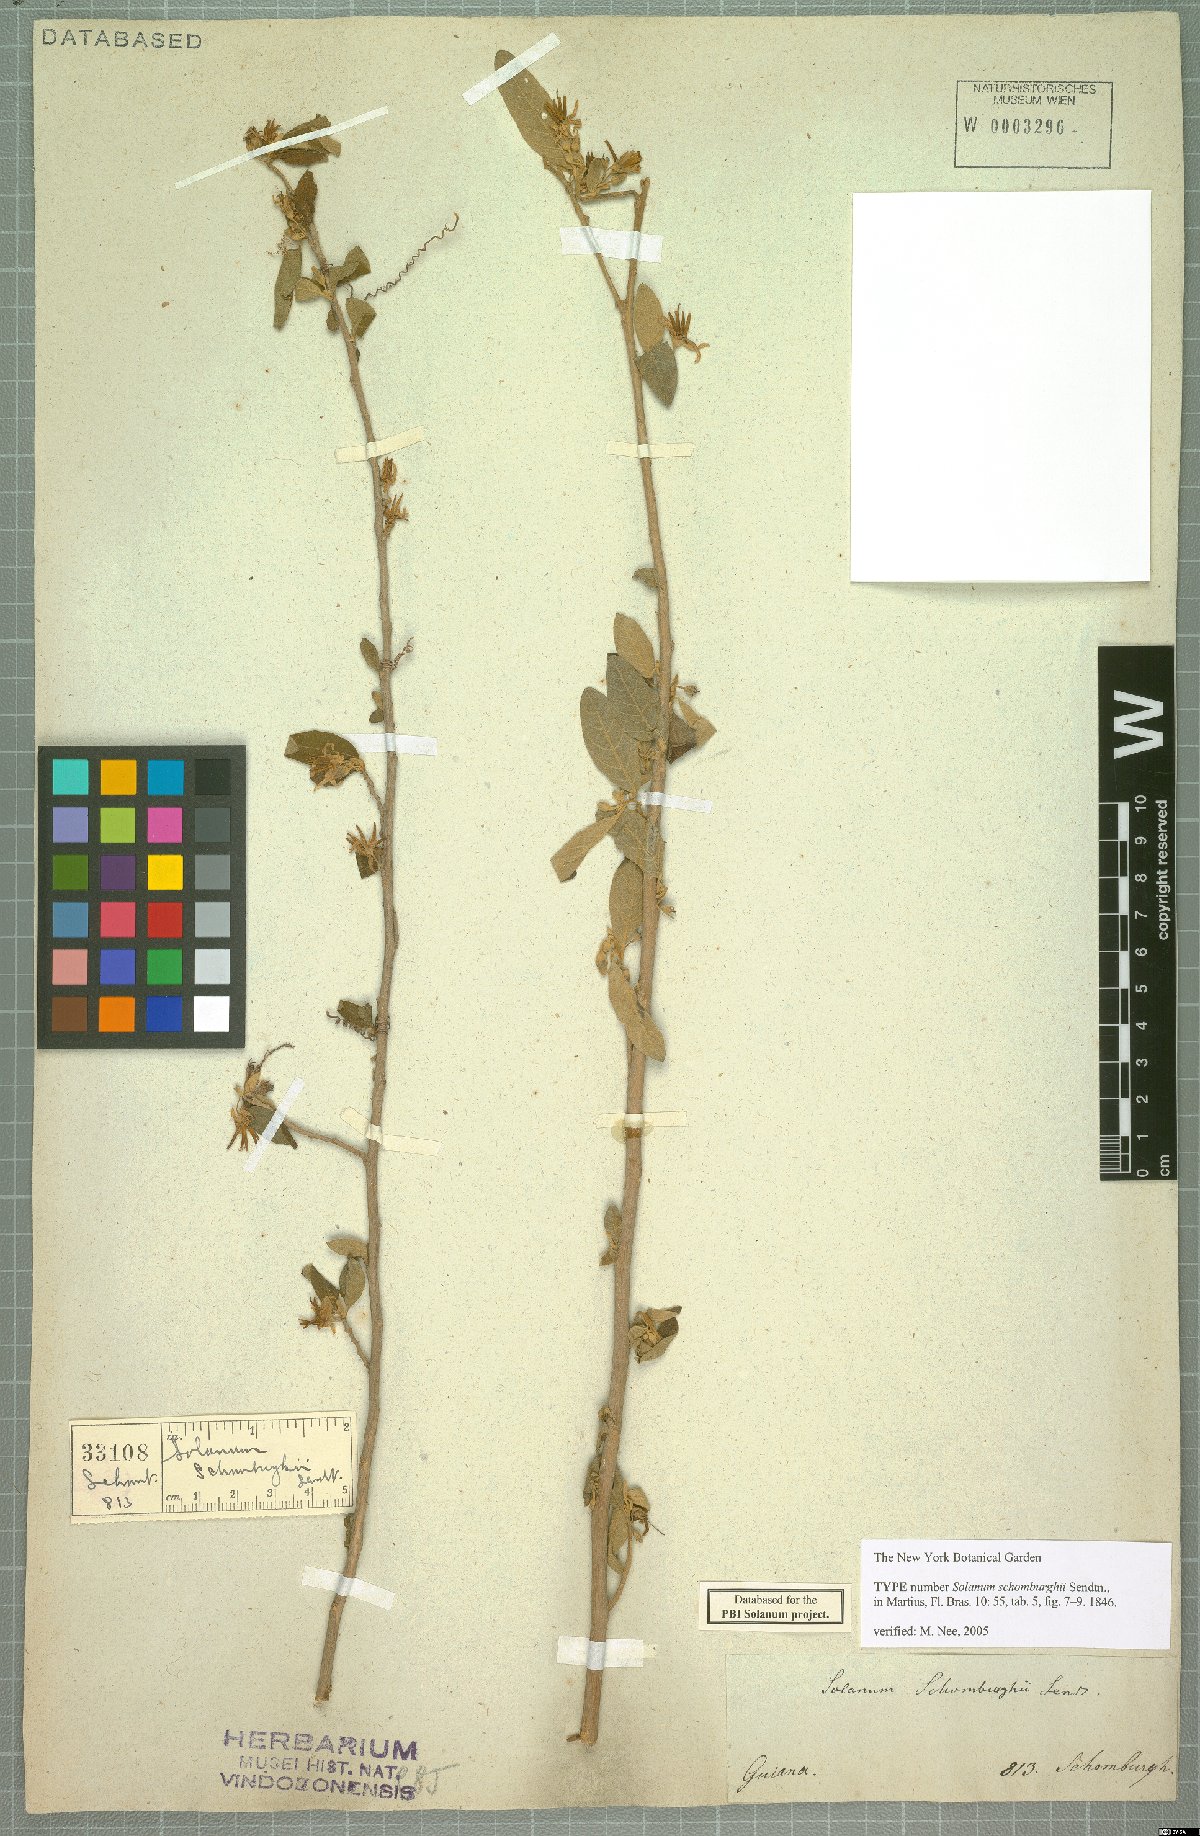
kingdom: Plantae
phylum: Tracheophyta
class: Magnoliopsida
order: Solanales
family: Solanaceae
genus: Solanum
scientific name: Solanum schomburgkii
